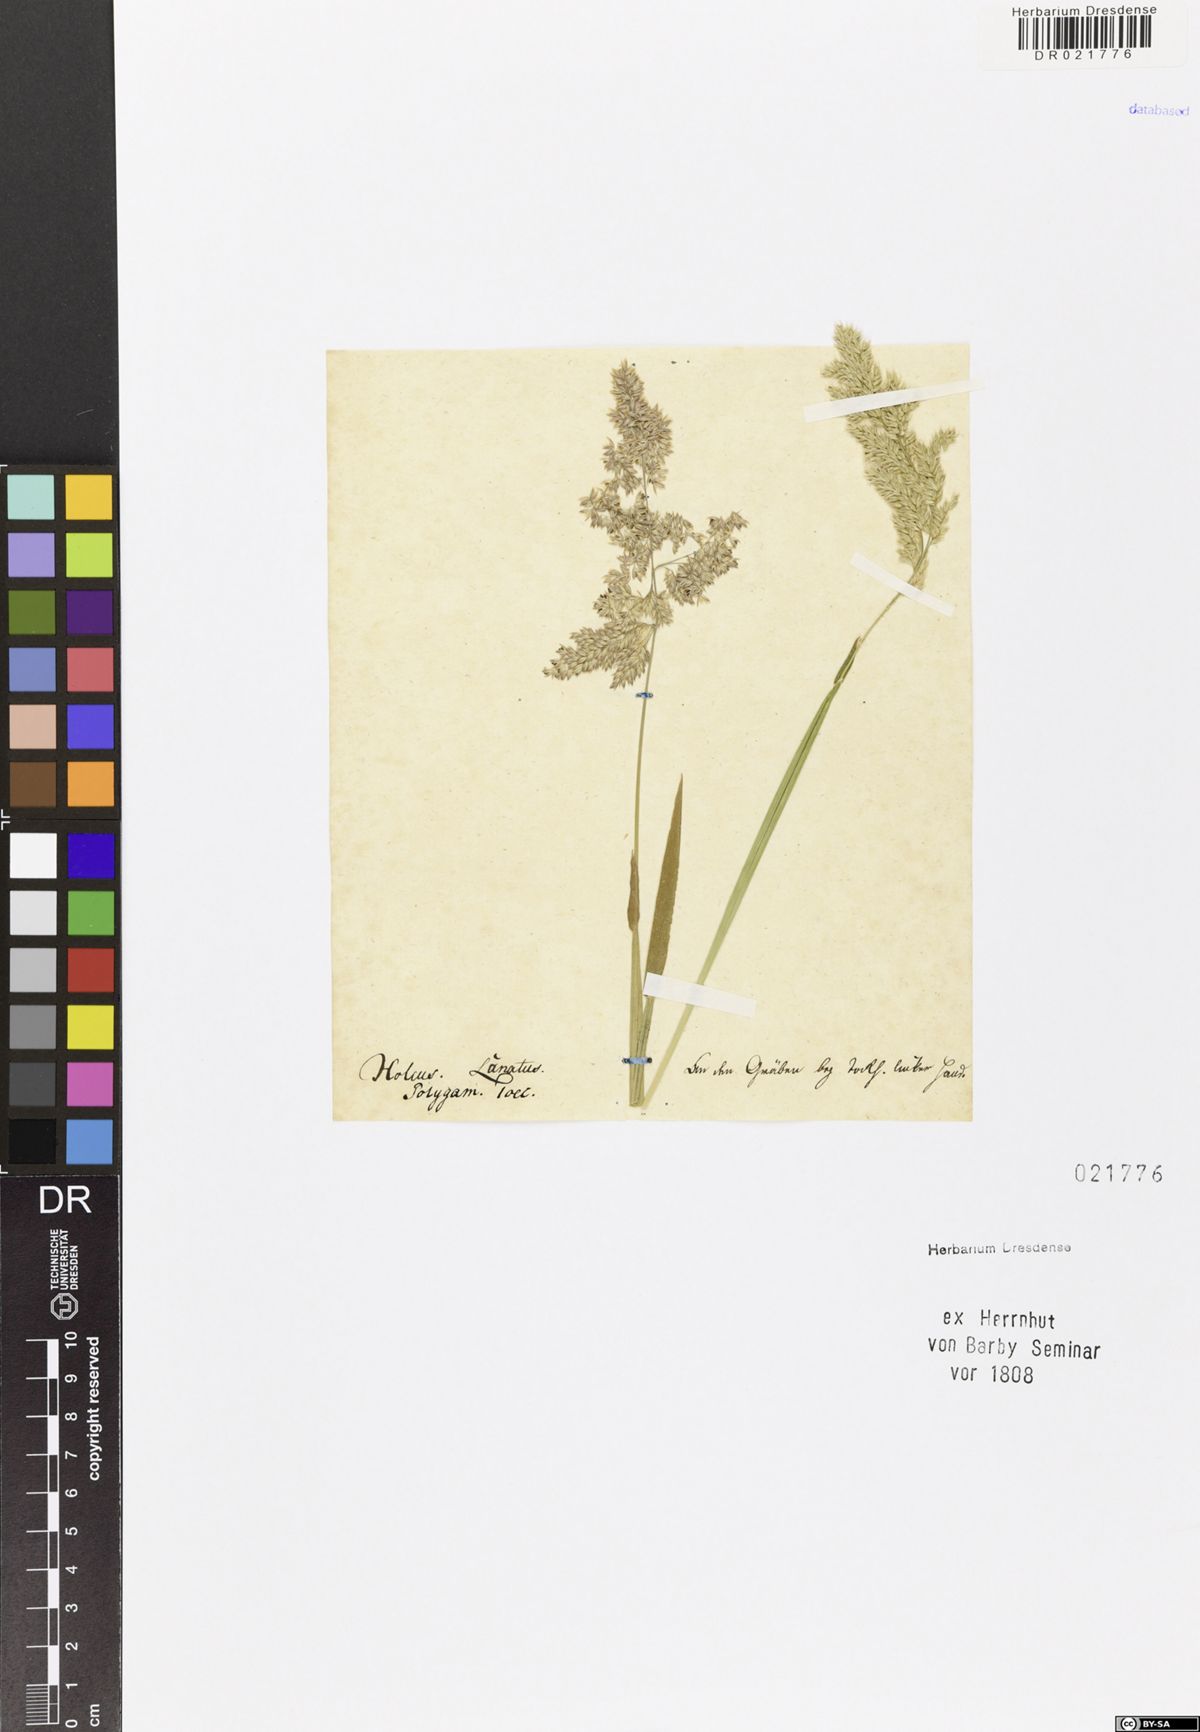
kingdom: Plantae
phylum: Tracheophyta
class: Liliopsida
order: Poales
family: Poaceae
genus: Holcus
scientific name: Holcus lanatus
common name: Yorkshire-fog
